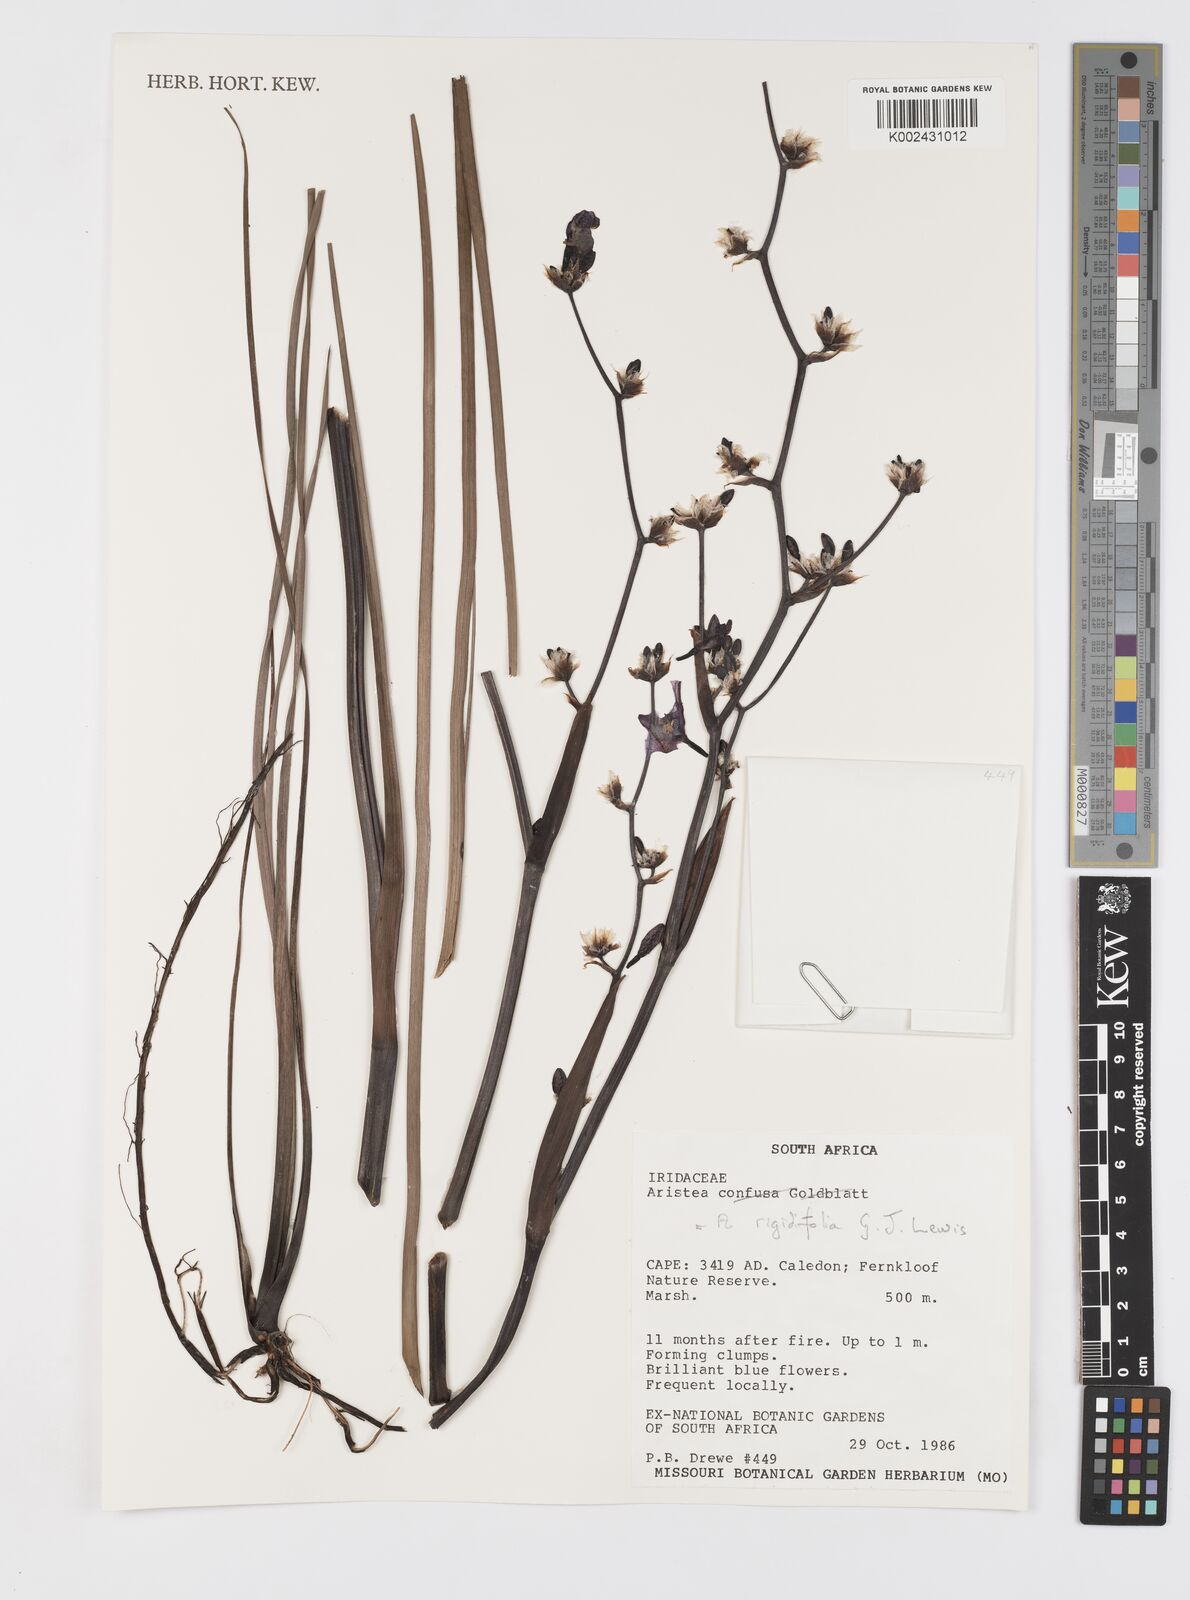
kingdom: Plantae
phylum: Tracheophyta
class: Liliopsida
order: Asparagales
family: Iridaceae
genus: Aristea
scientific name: Aristea rigidifolia
